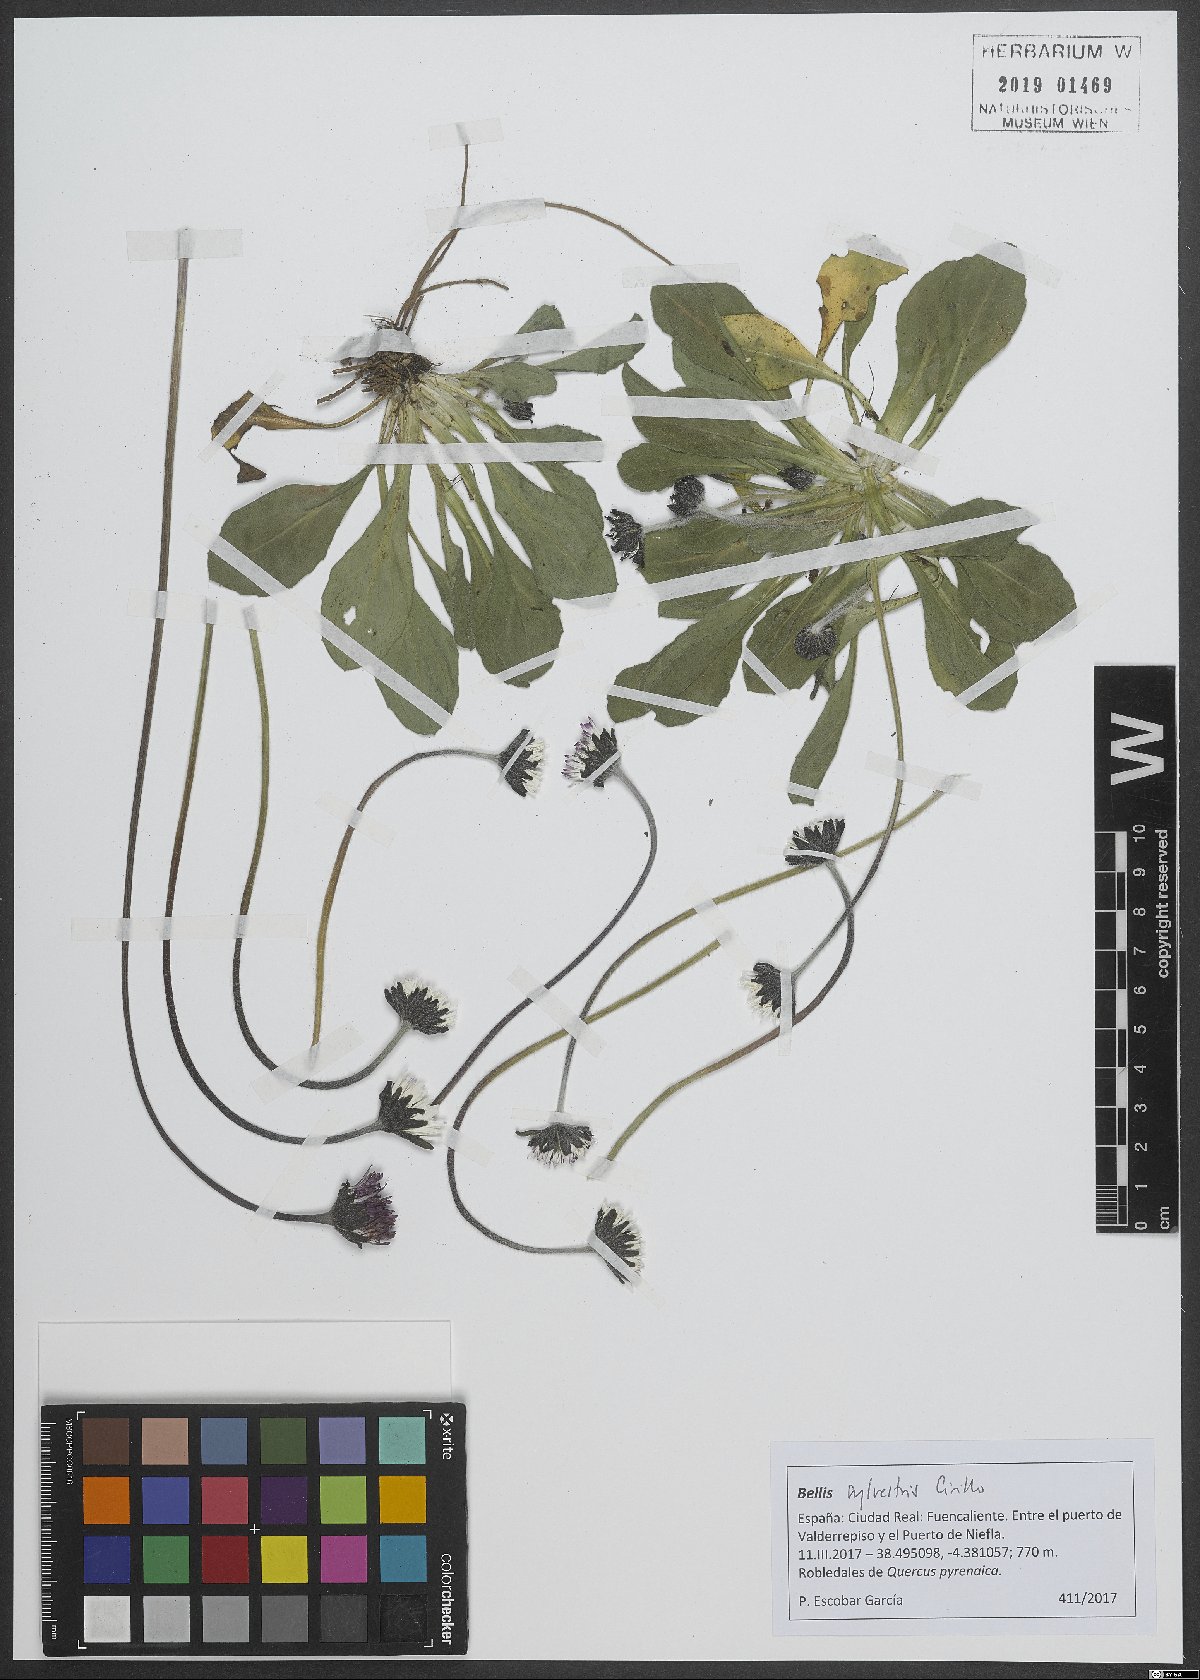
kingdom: Plantae
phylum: Tracheophyta
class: Magnoliopsida
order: Asterales
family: Asteraceae
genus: Bellis
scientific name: Bellis sylvestris
